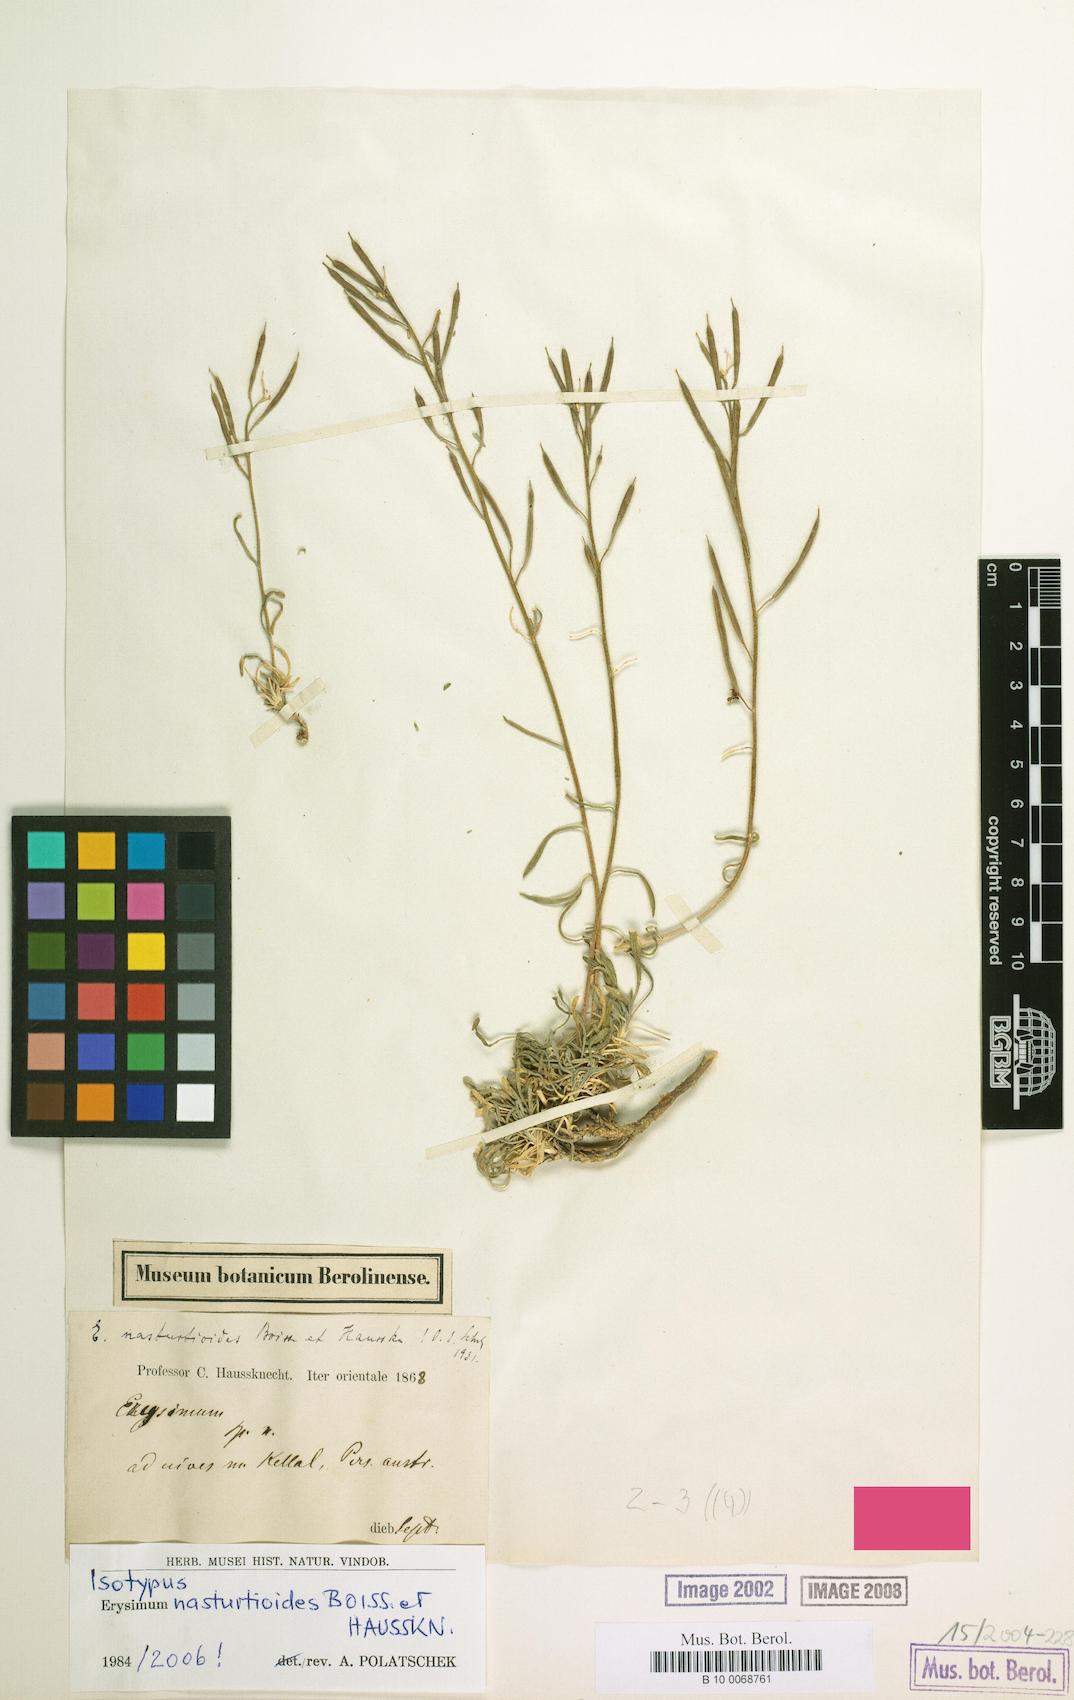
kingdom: Plantae
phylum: Tracheophyta
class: Magnoliopsida
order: Brassicales
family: Brassicaceae
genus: Erysimum
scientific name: Erysimum nasturtioides
